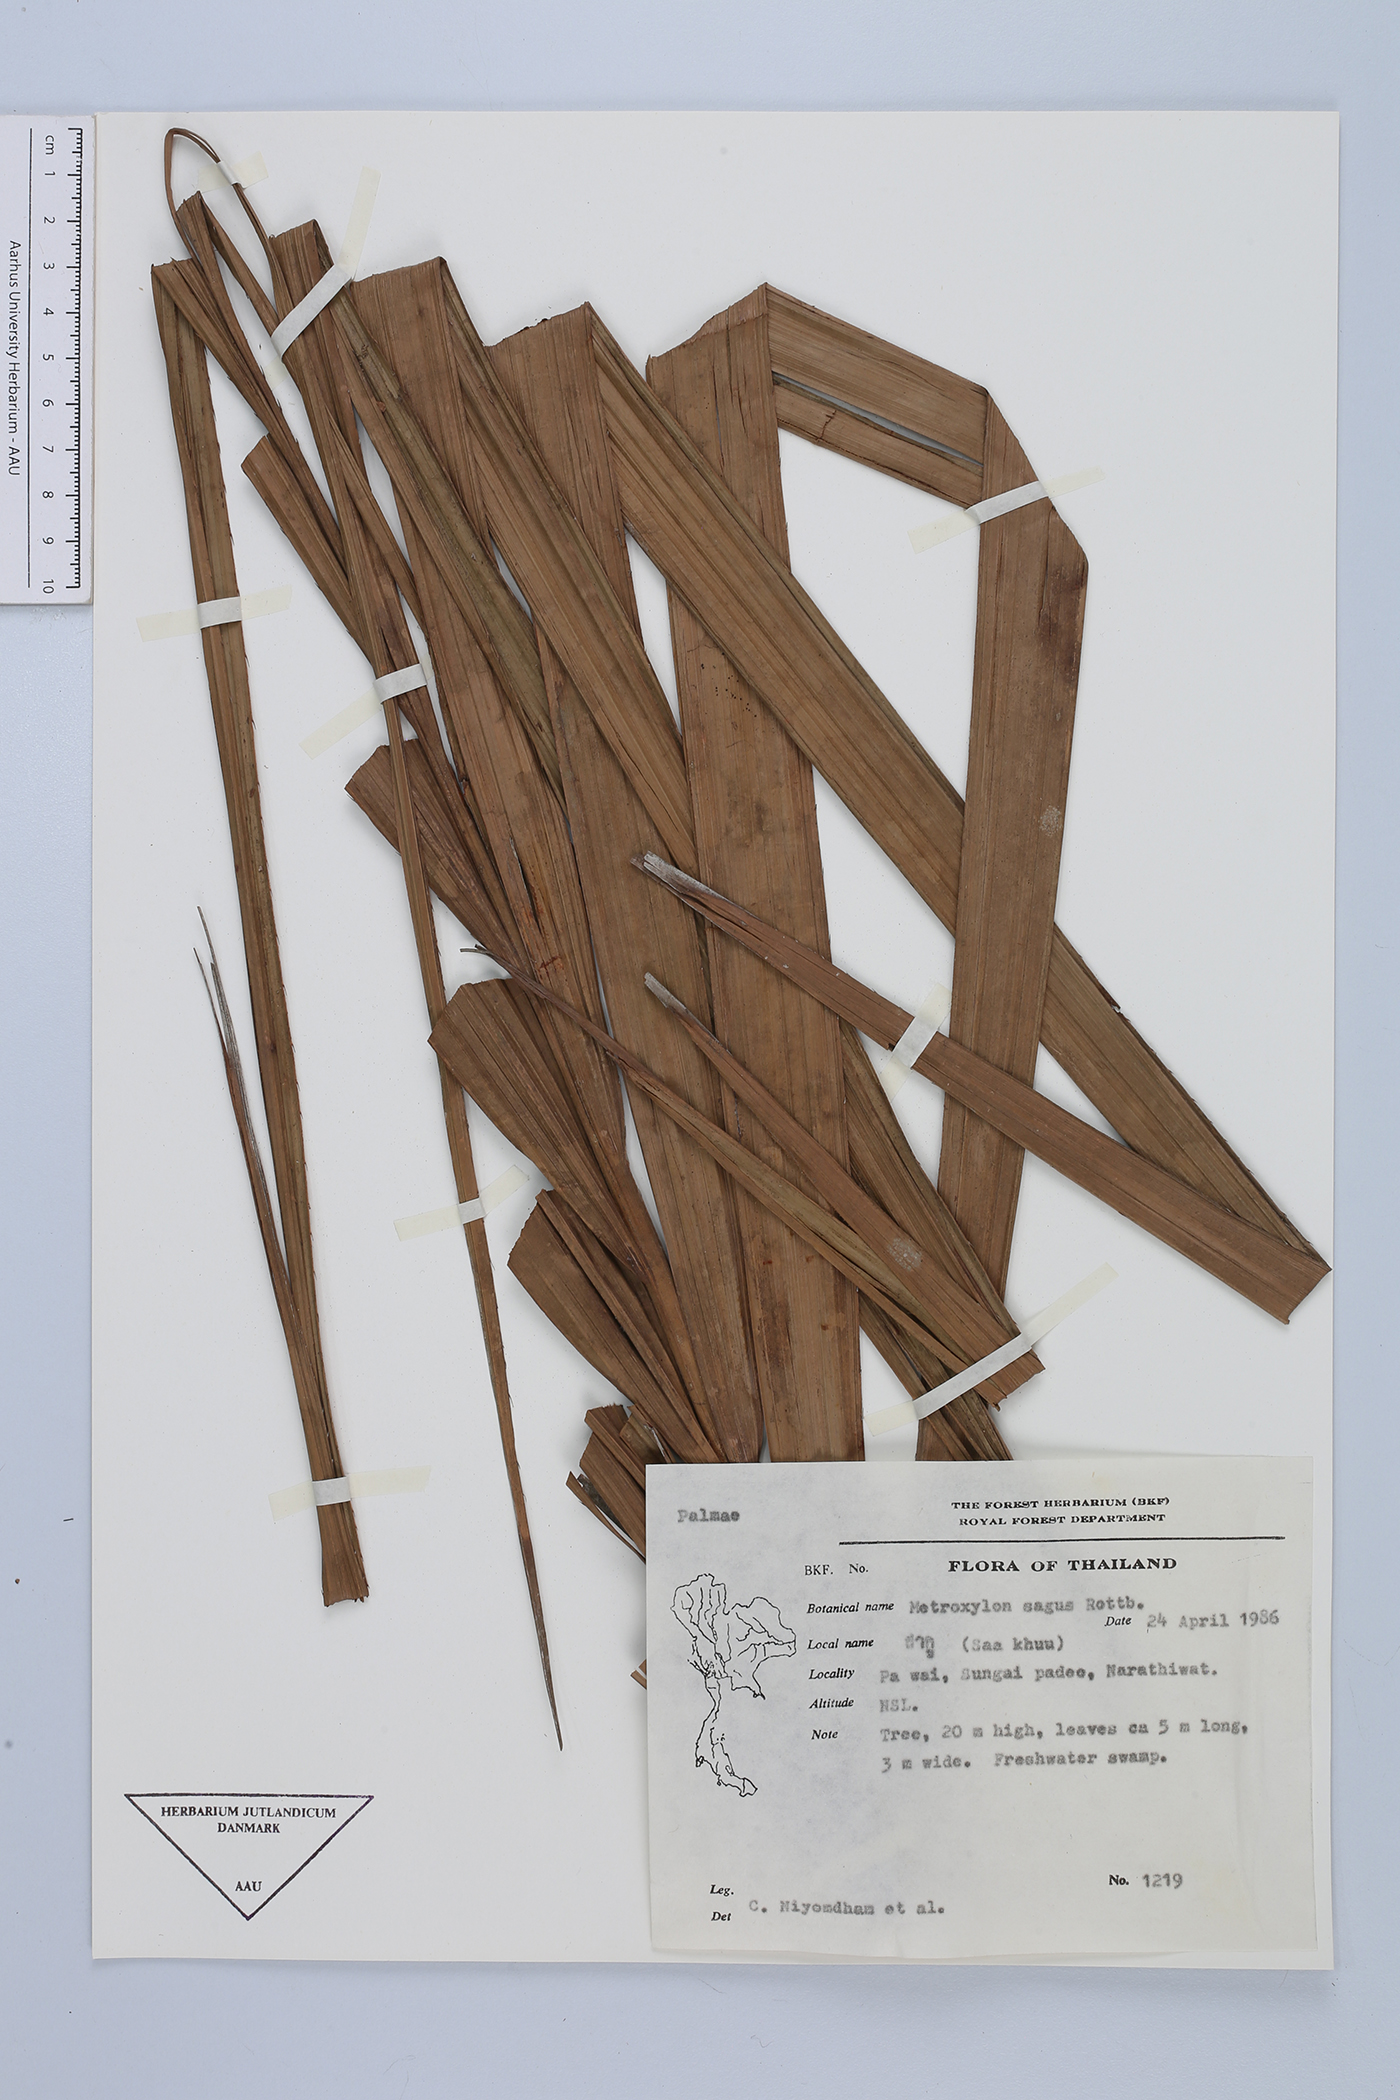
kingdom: Plantae
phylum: Tracheophyta
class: Liliopsida
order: Arecales
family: Arecaceae
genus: Metroxylon
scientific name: Metroxylon sagu
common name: Sago palm
